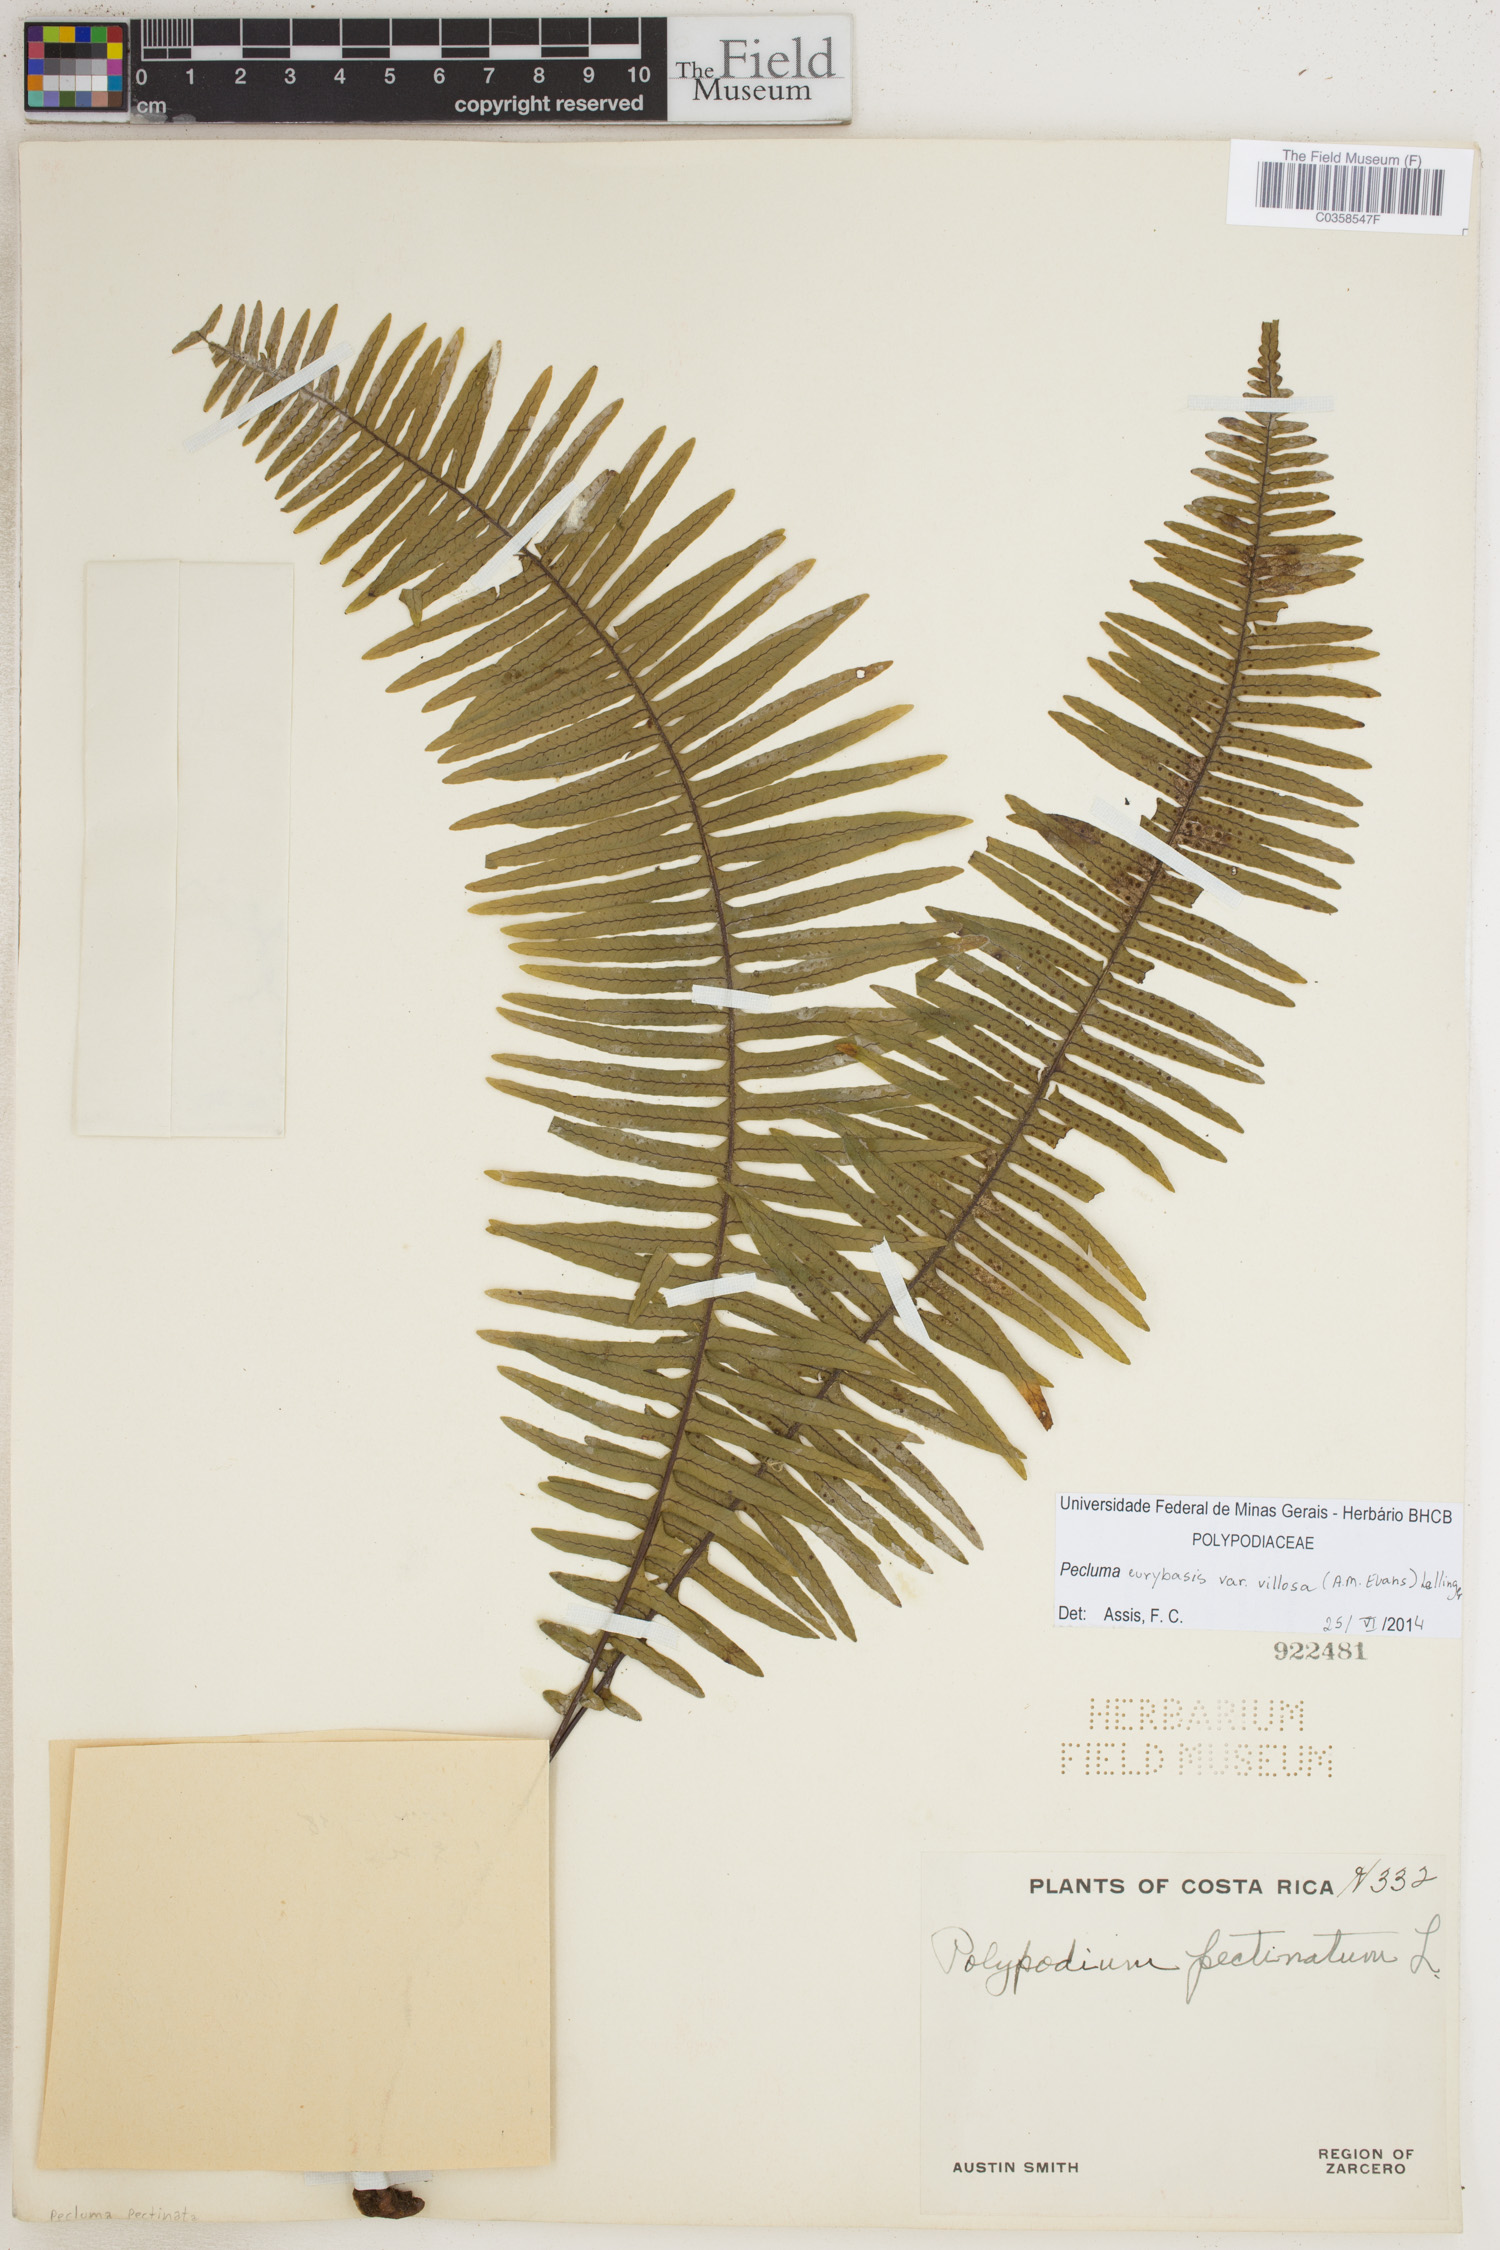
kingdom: Plantae
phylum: Tracheophyta
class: Polypodiopsida
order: Polypodiales
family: Polypodiaceae
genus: Pecluma
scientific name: Pecluma eurybasis
